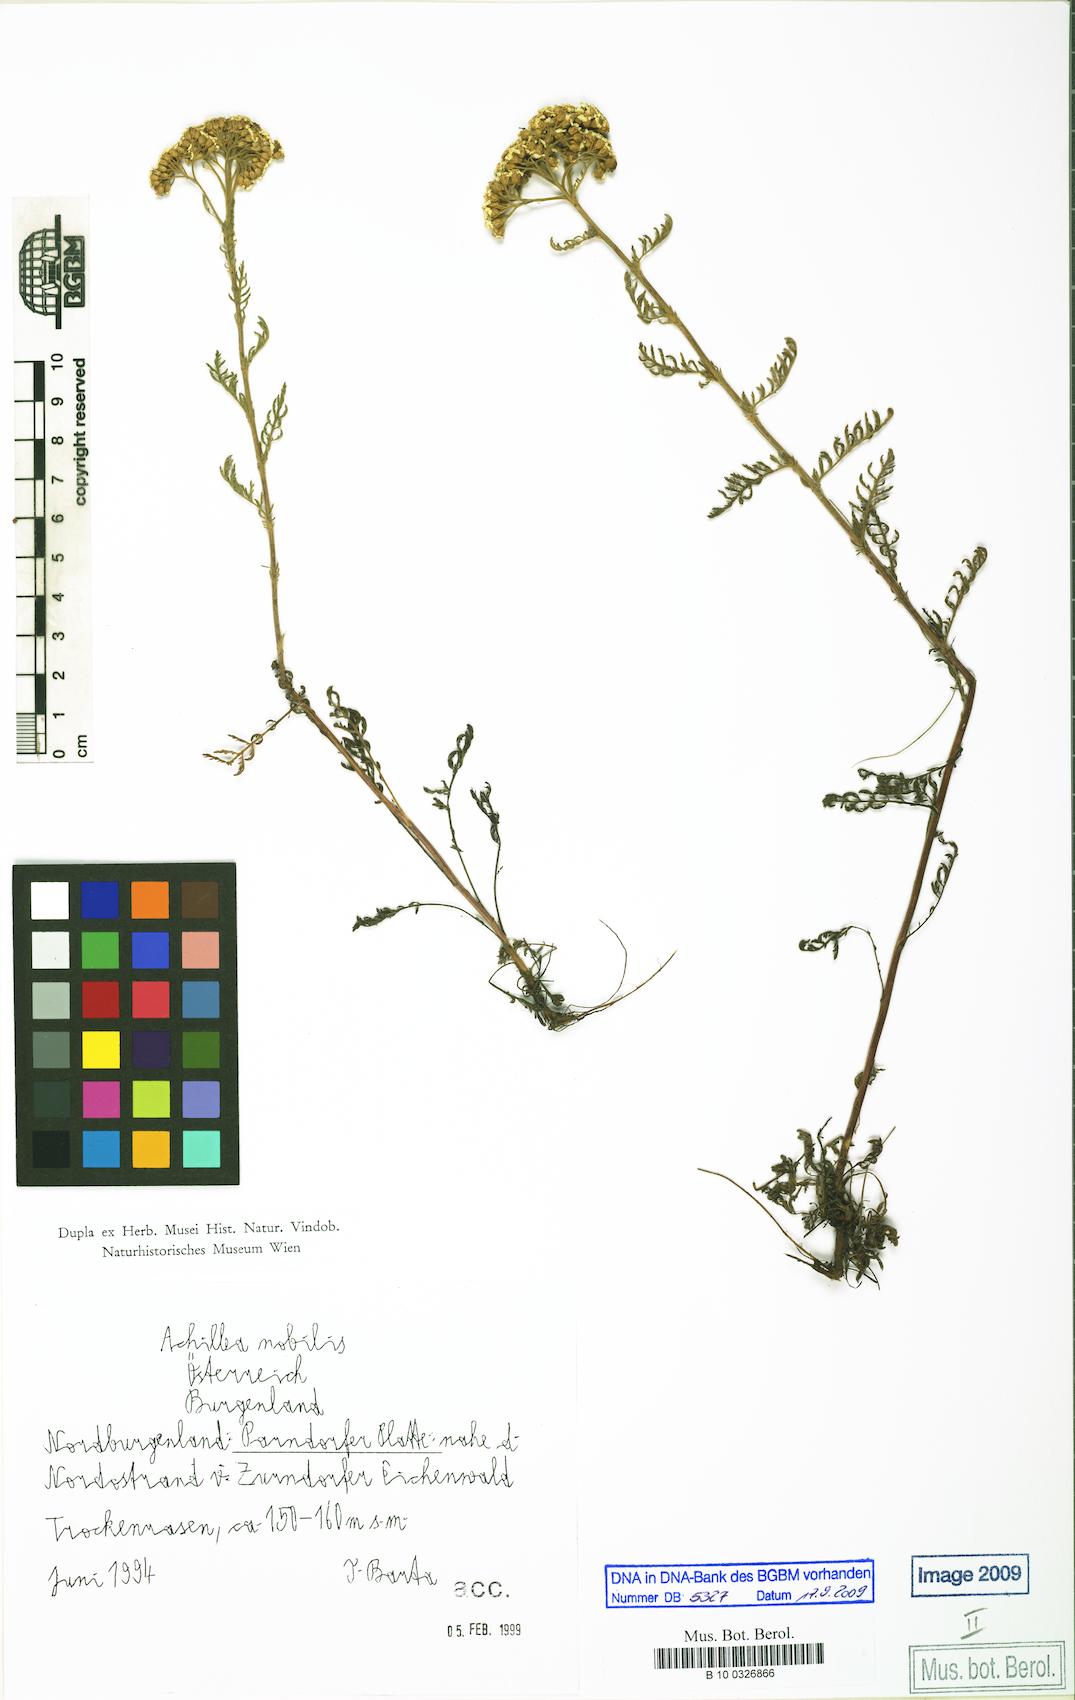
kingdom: Plantae
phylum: Tracheophyta
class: Magnoliopsida
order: Asterales
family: Asteraceae
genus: Achillea
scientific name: Achillea nobilis
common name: Noble yarrow
